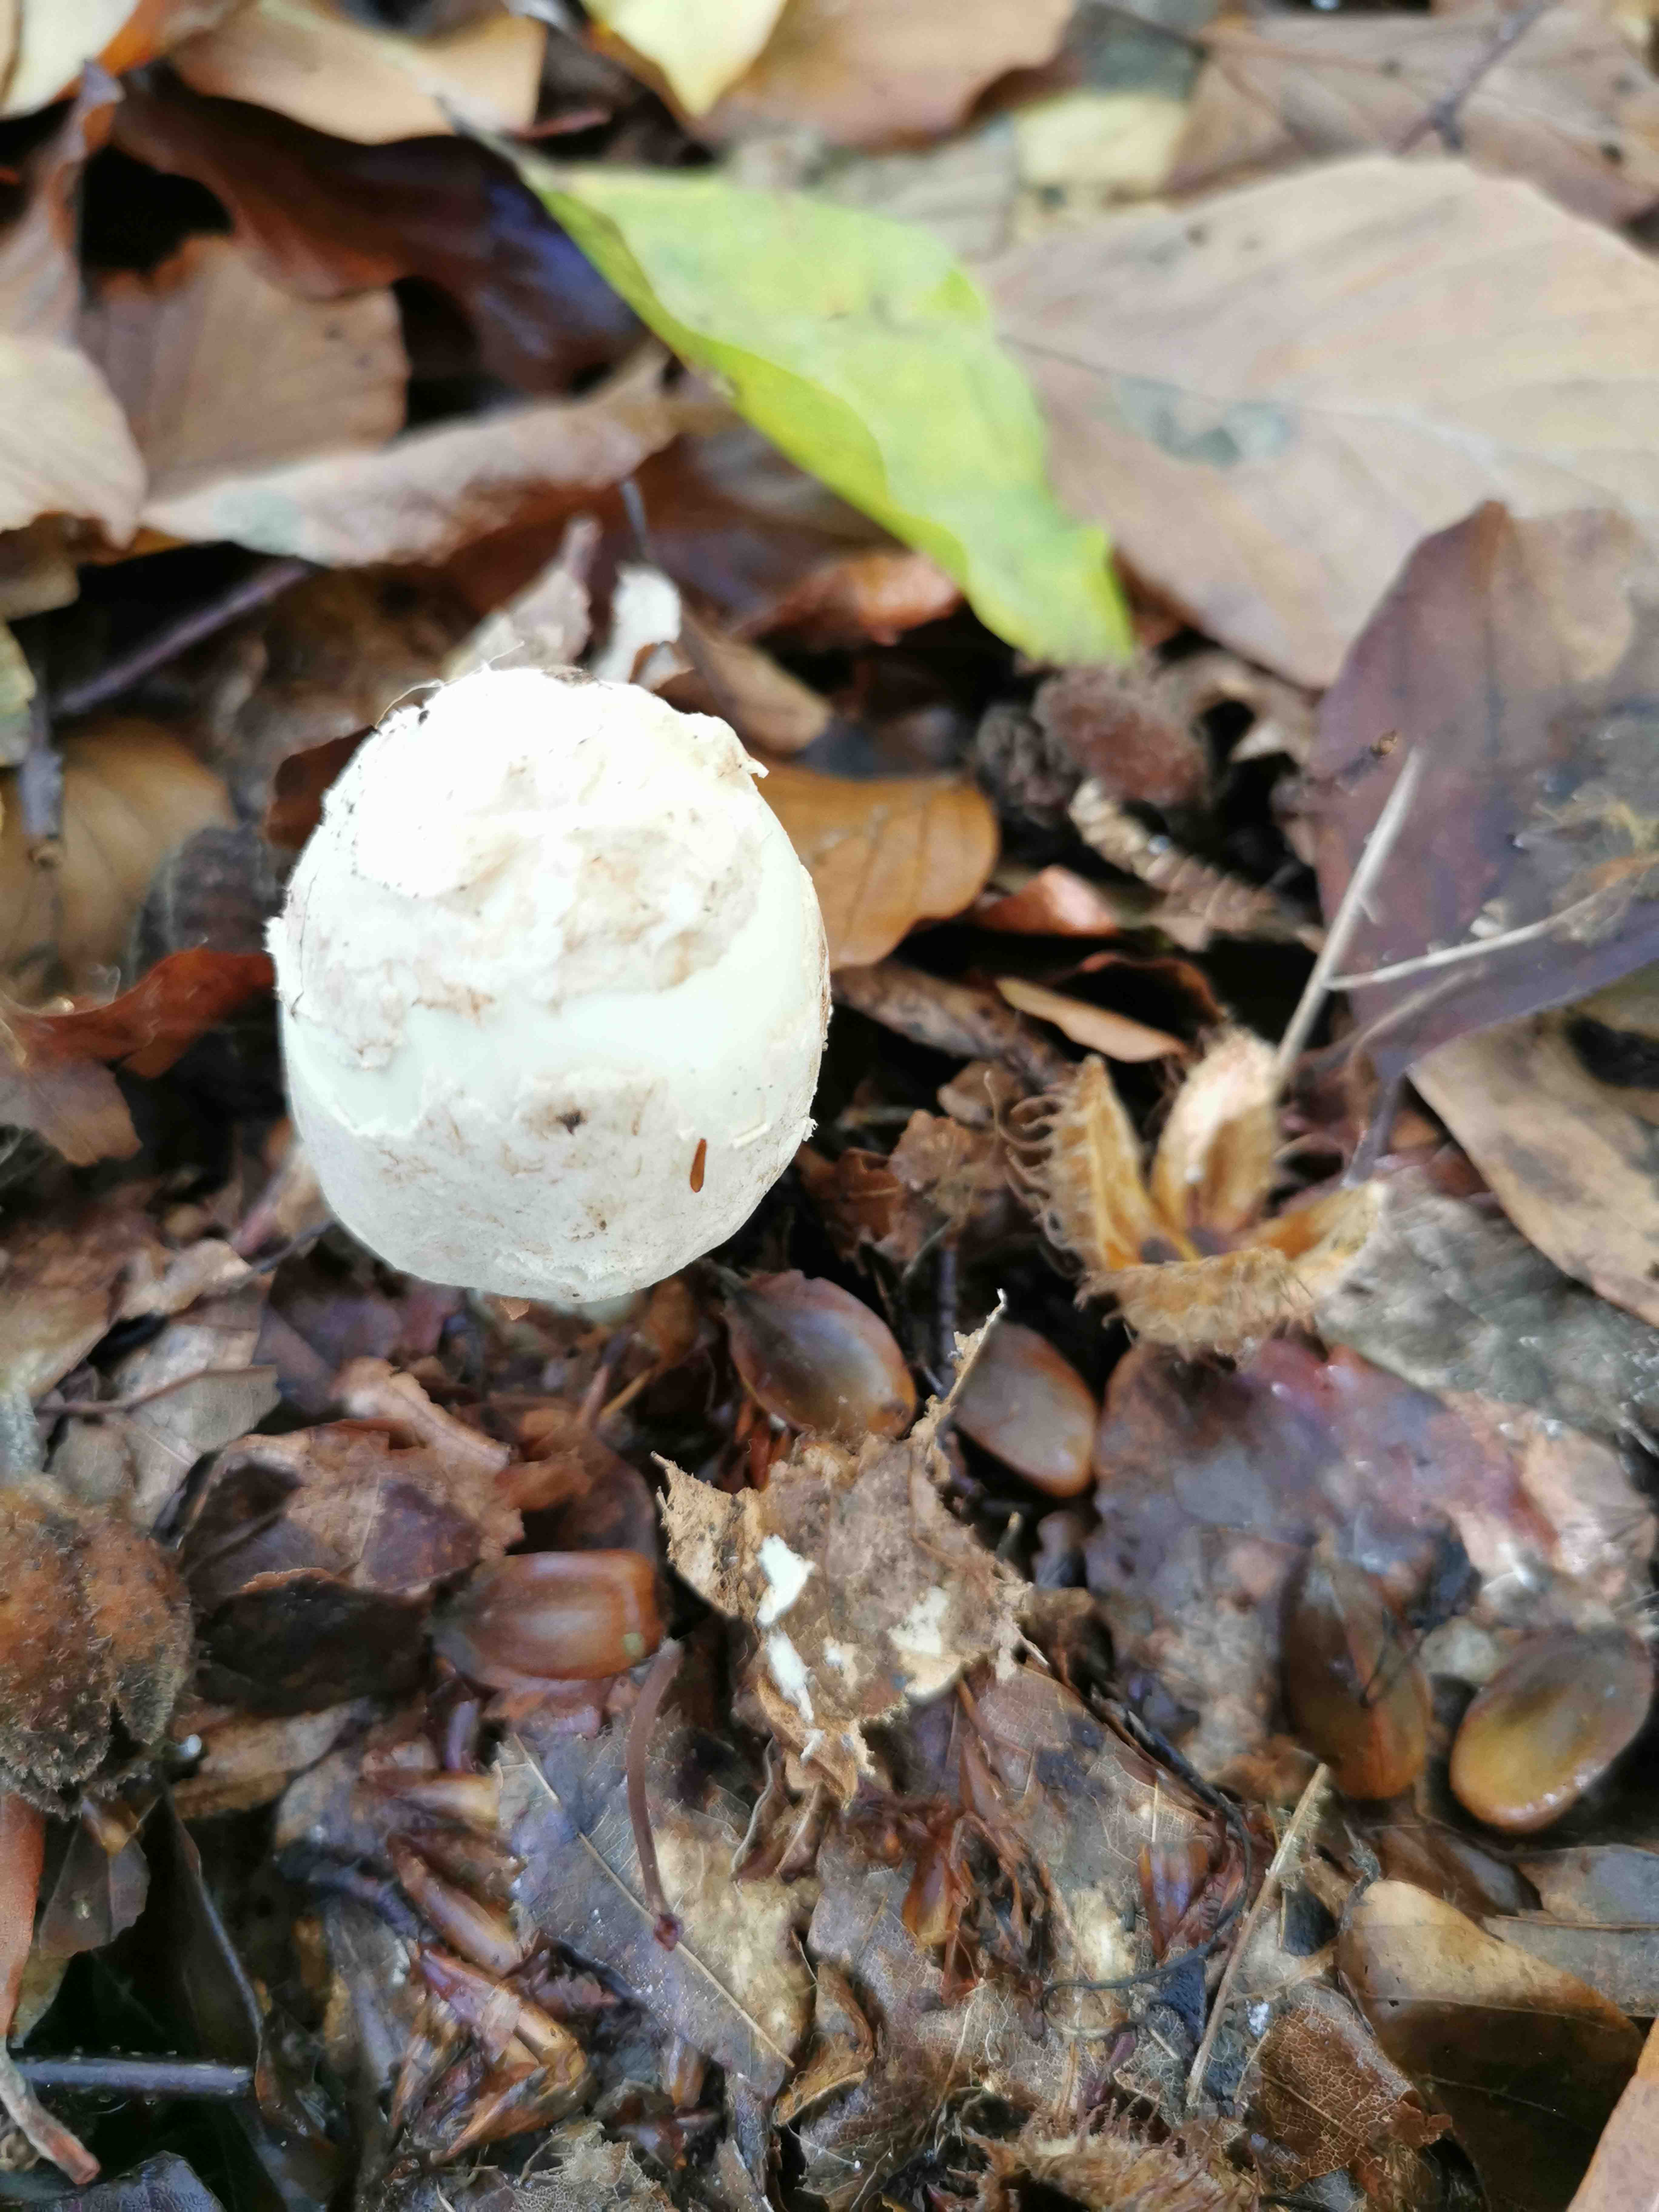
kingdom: Fungi
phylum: Basidiomycota
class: Agaricomycetes
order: Agaricales
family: Amanitaceae
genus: Amanita
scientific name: Amanita citrina
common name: kugleknoldet fluesvamp
